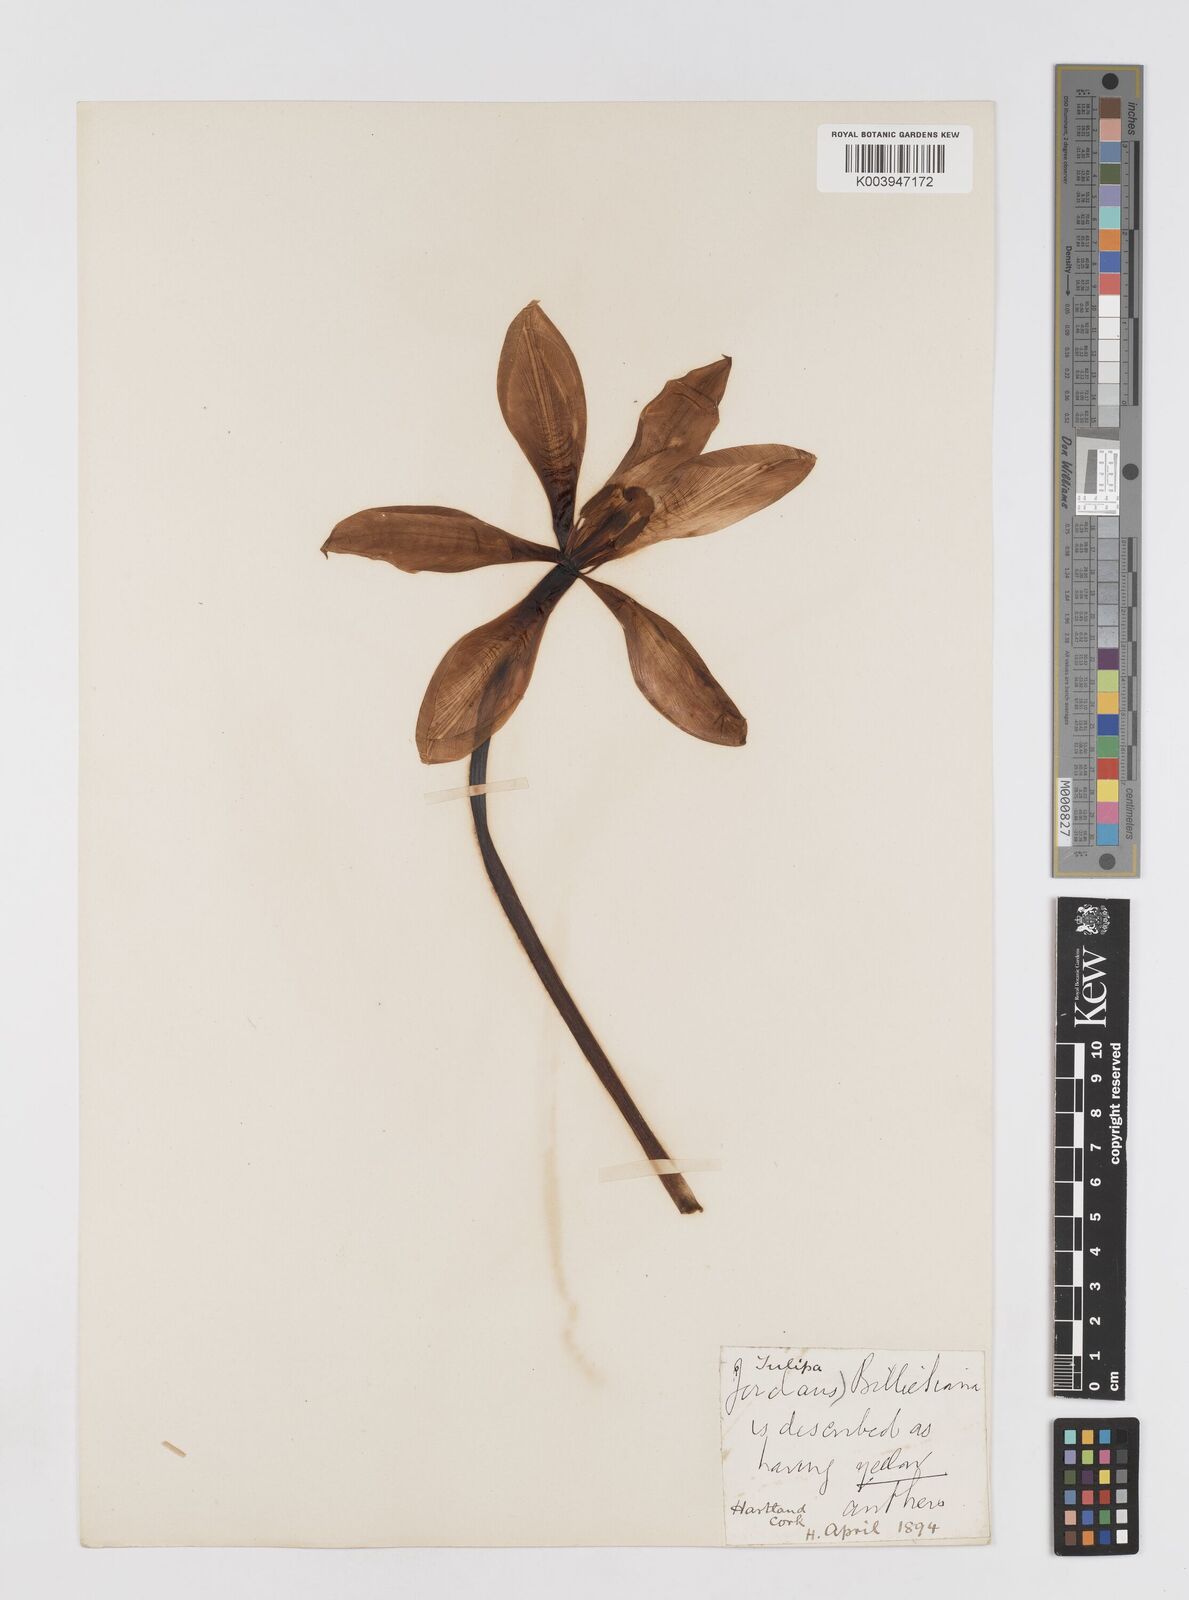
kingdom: Plantae
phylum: Tracheophyta
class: Liliopsida
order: Liliales
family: Liliaceae
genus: Tulipa
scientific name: Tulipa gesneriana
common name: Garden tulip
